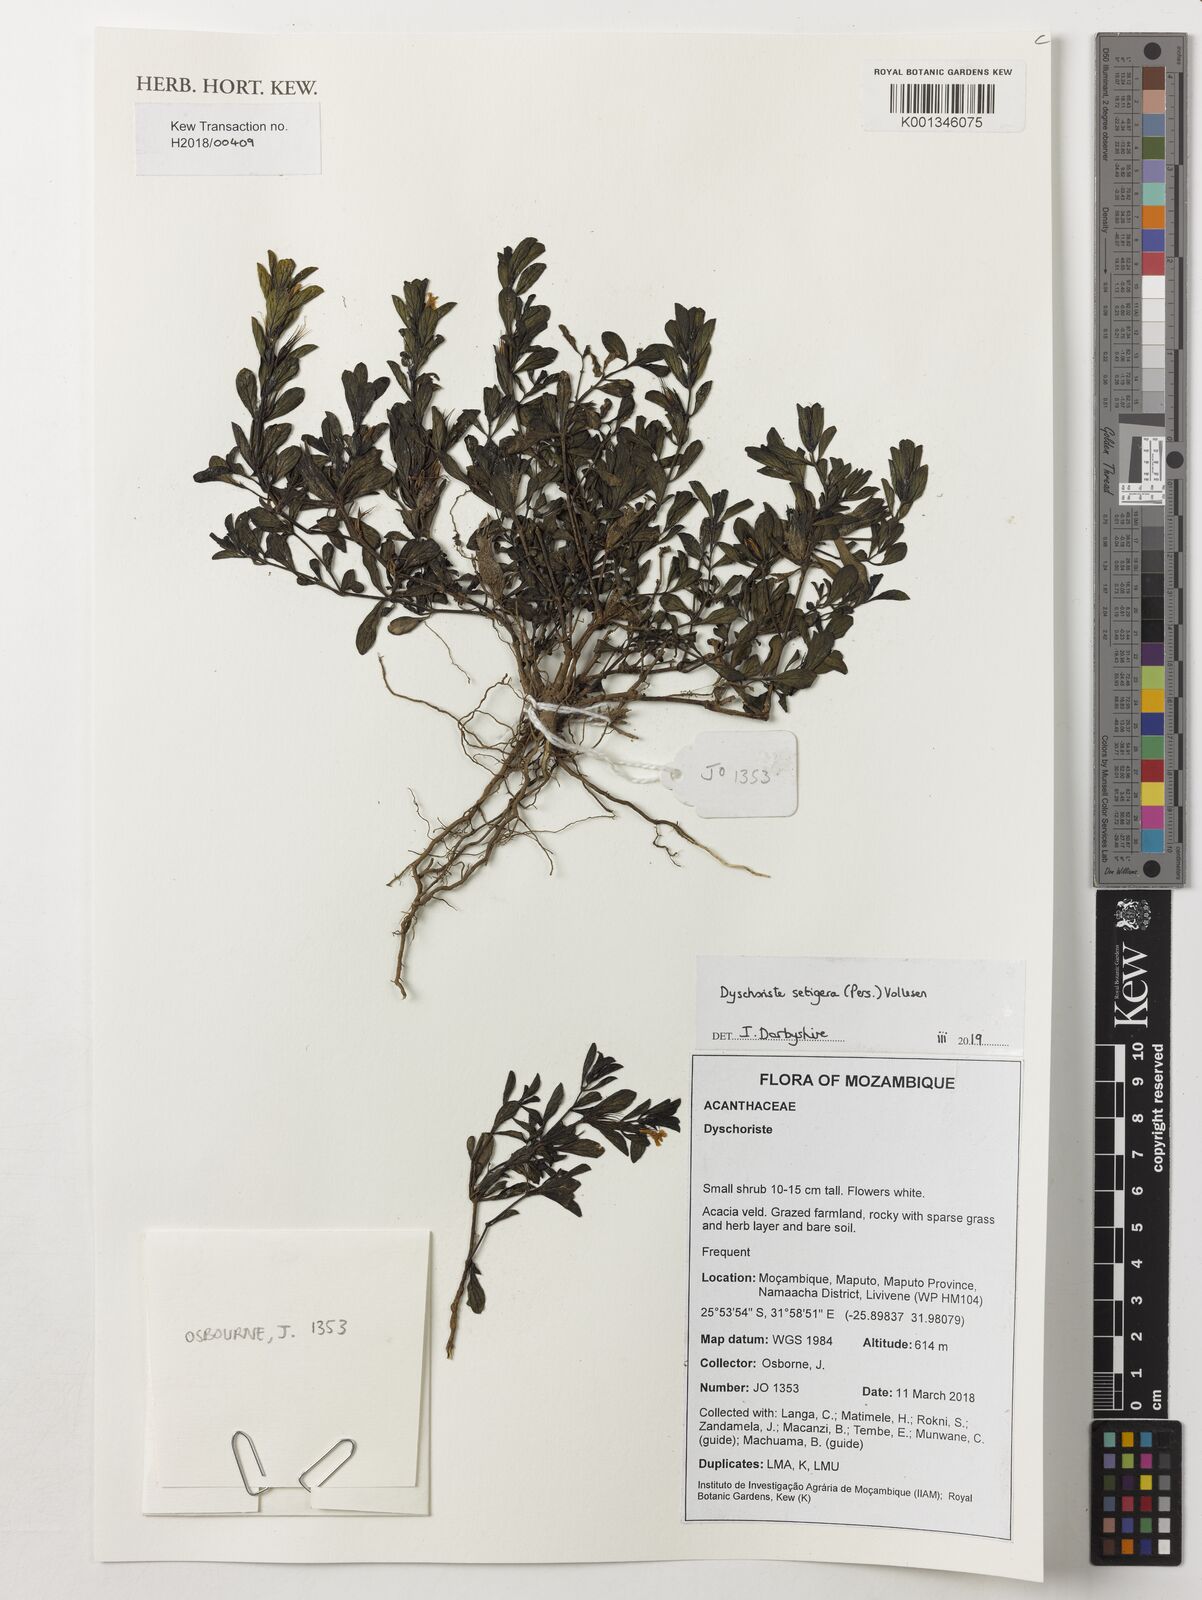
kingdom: Plantae
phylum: Tracheophyta
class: Magnoliopsida
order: Lamiales
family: Acanthaceae
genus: Dyschoriste
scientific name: Dyschoriste
